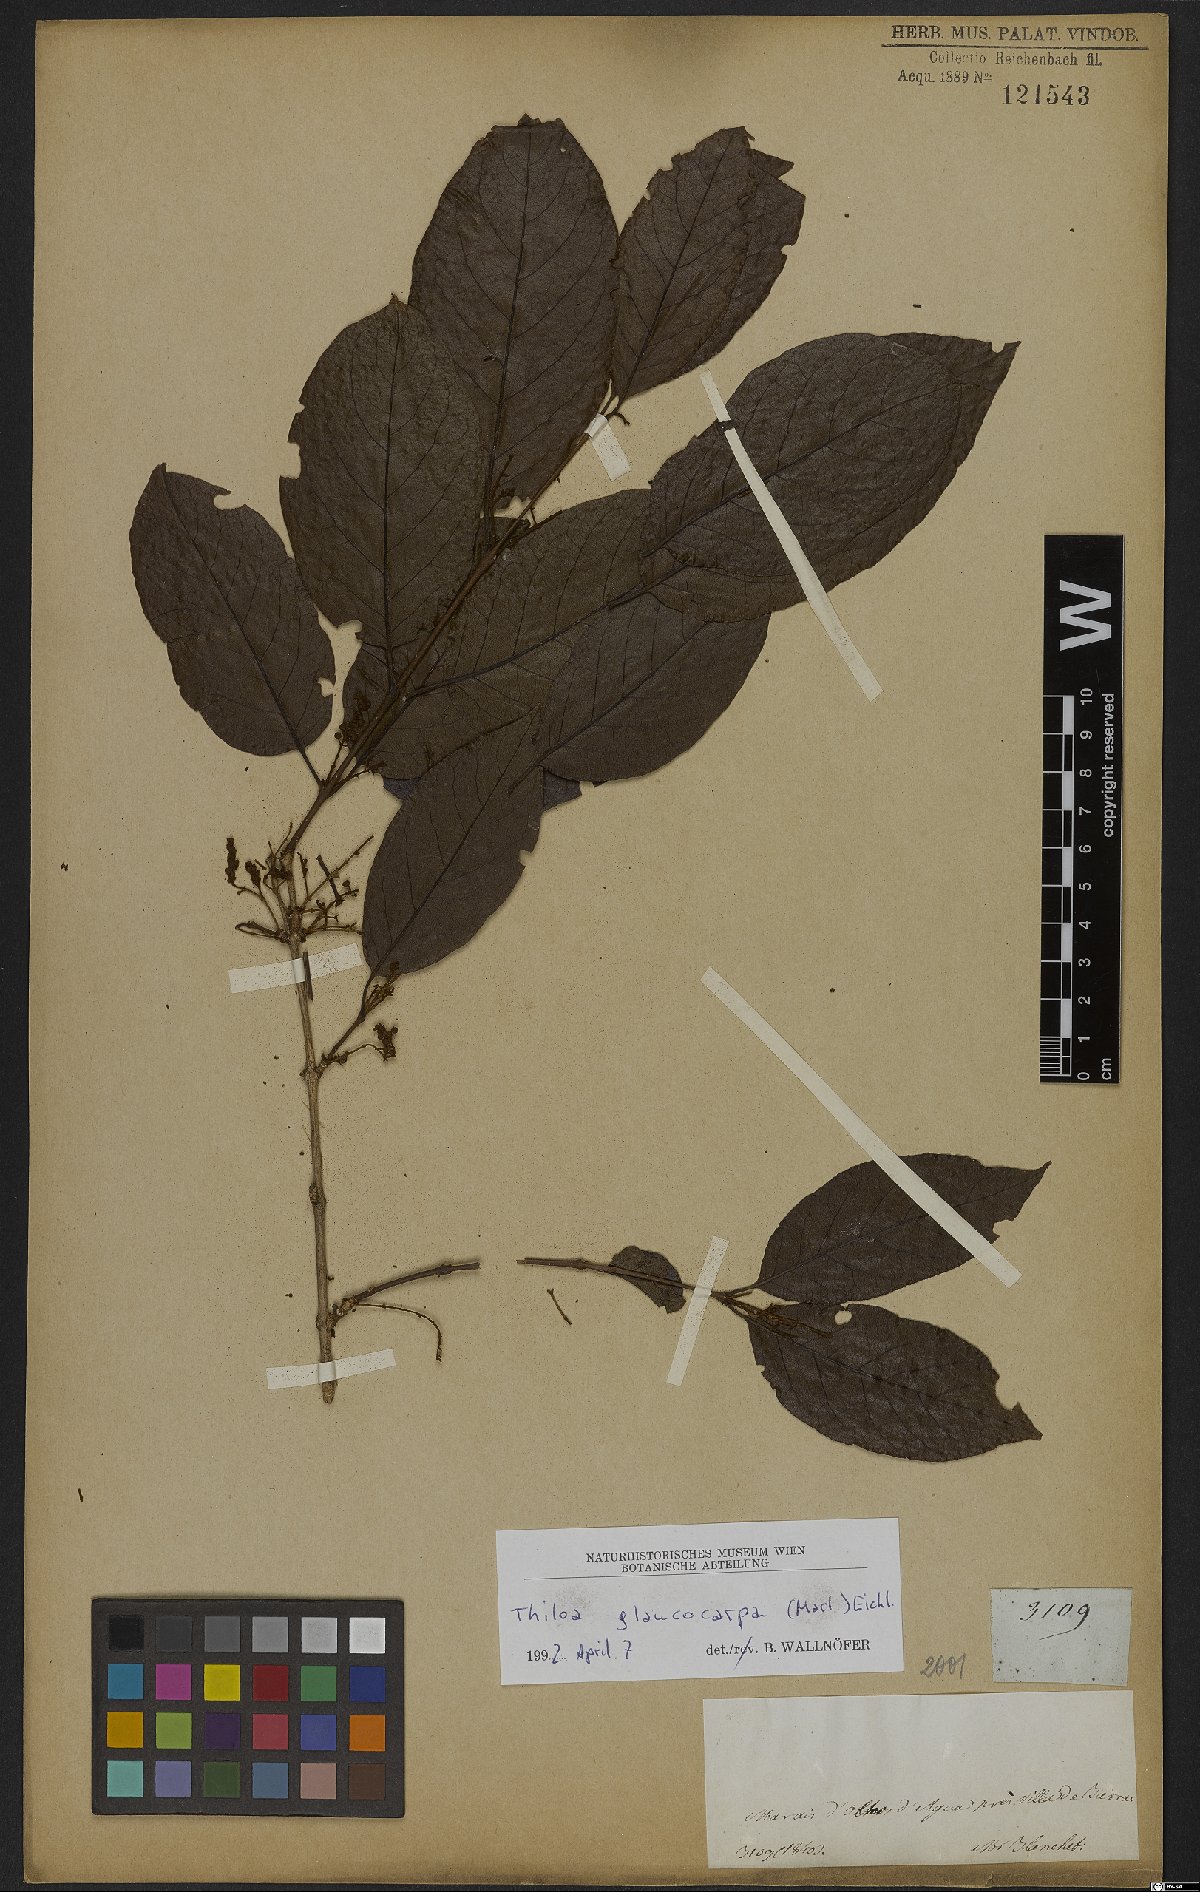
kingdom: Plantae
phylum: Tracheophyta
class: Magnoliopsida
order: Myrtales
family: Combretaceae
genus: Combretum
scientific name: Combretum glaucocarpum
